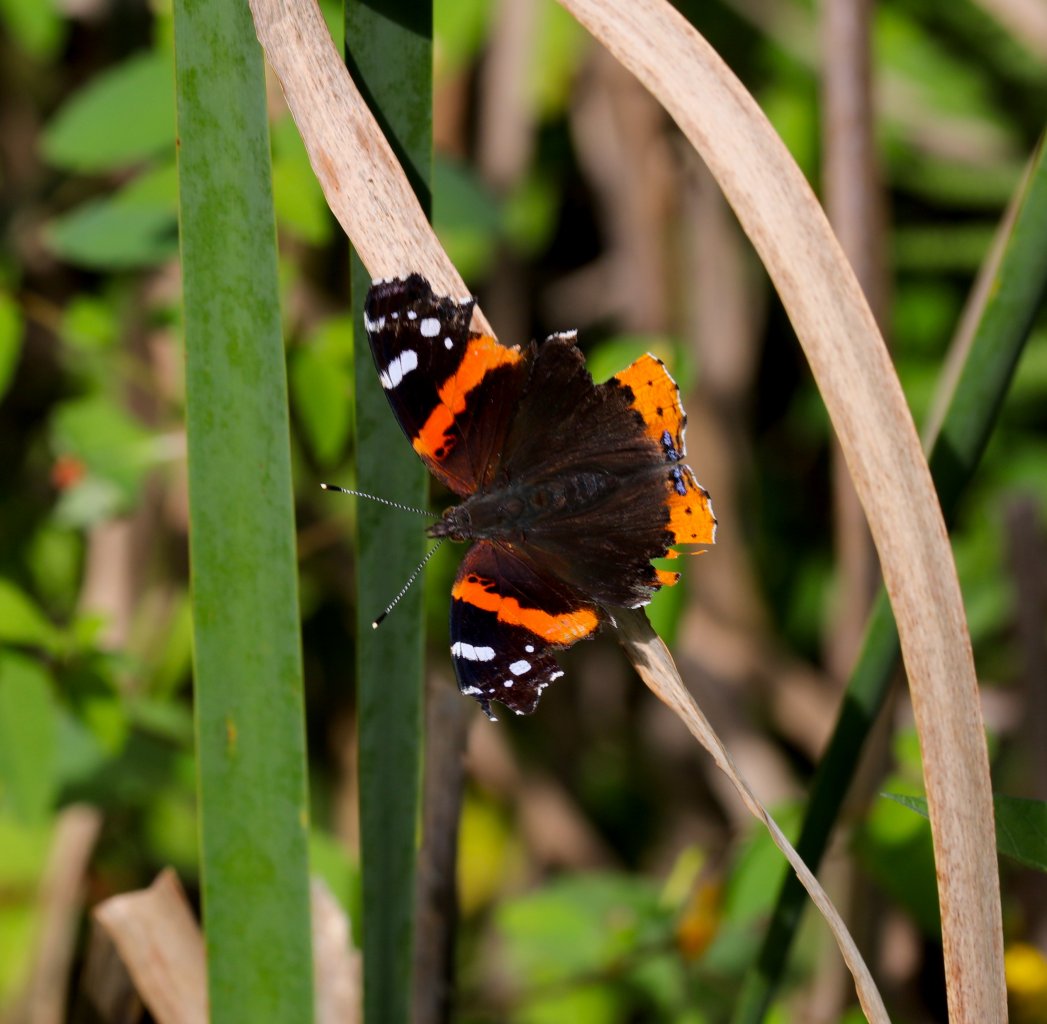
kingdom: Animalia
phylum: Arthropoda
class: Insecta
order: Lepidoptera
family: Nymphalidae
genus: Vanessa
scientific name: Vanessa atalanta
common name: Red Admiral
